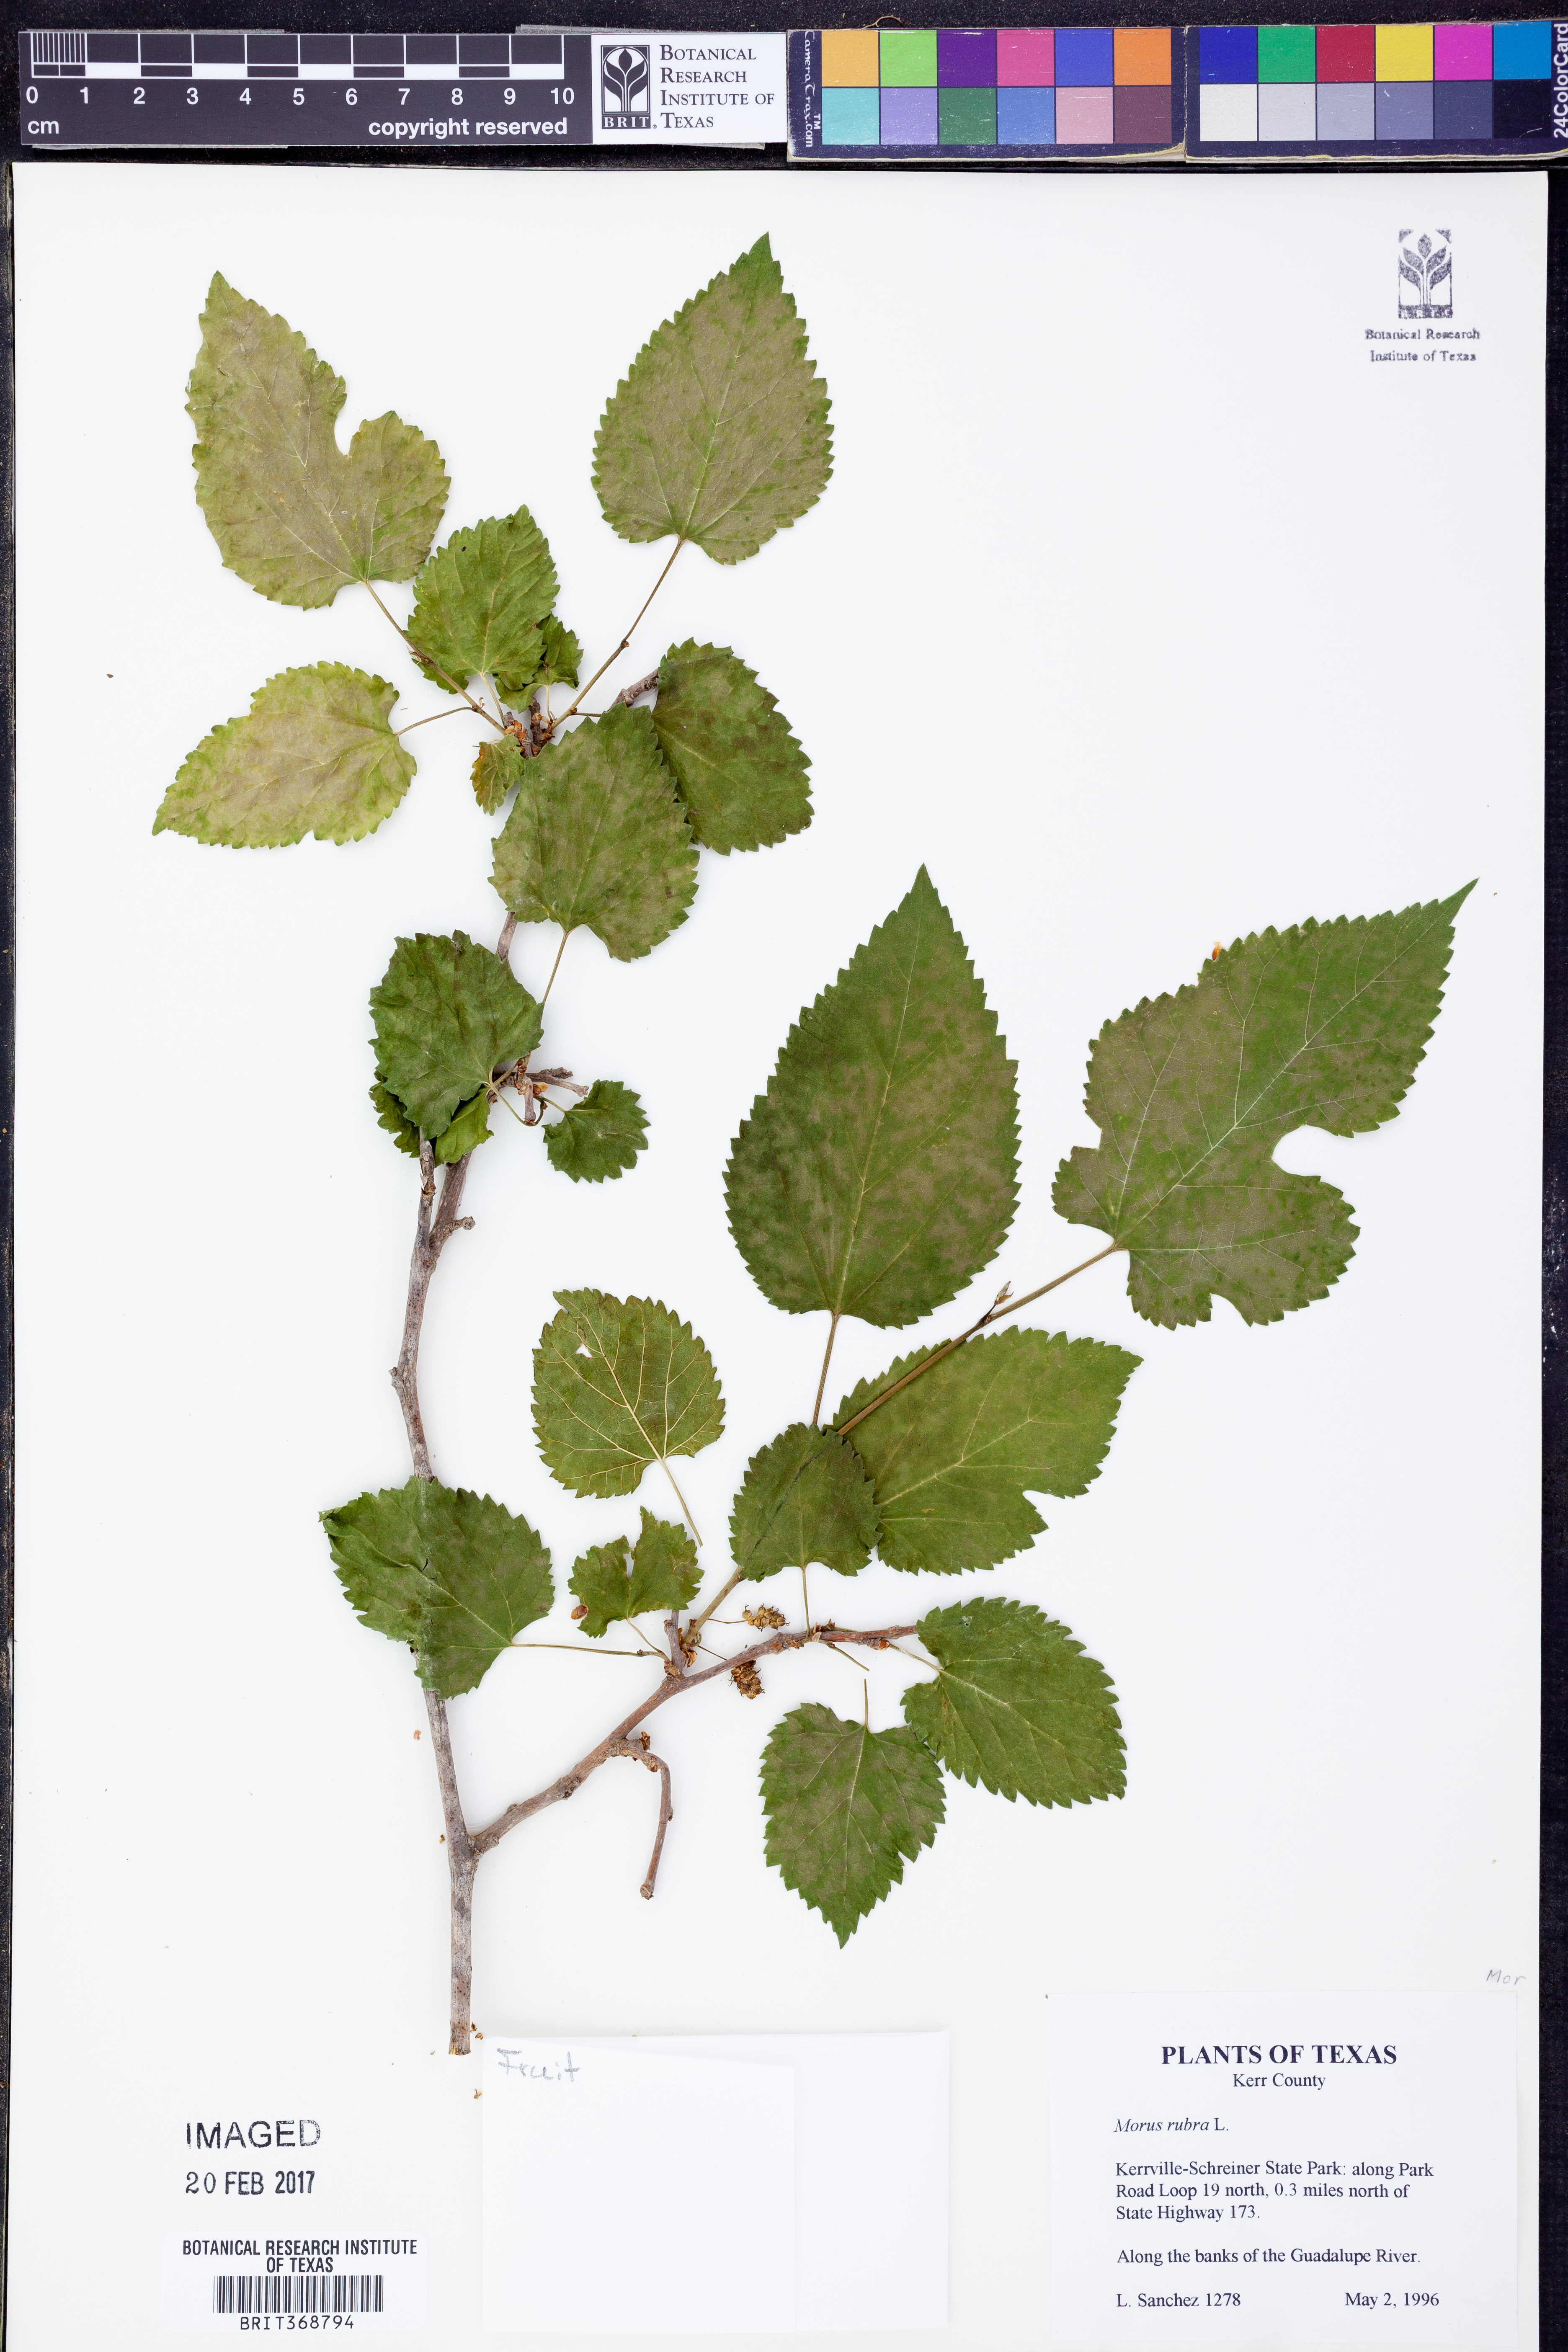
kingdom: Plantae
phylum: Tracheophyta
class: Magnoliopsida
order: Rosales
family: Moraceae
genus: Morus
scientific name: Morus rubra
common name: Red mulberry
